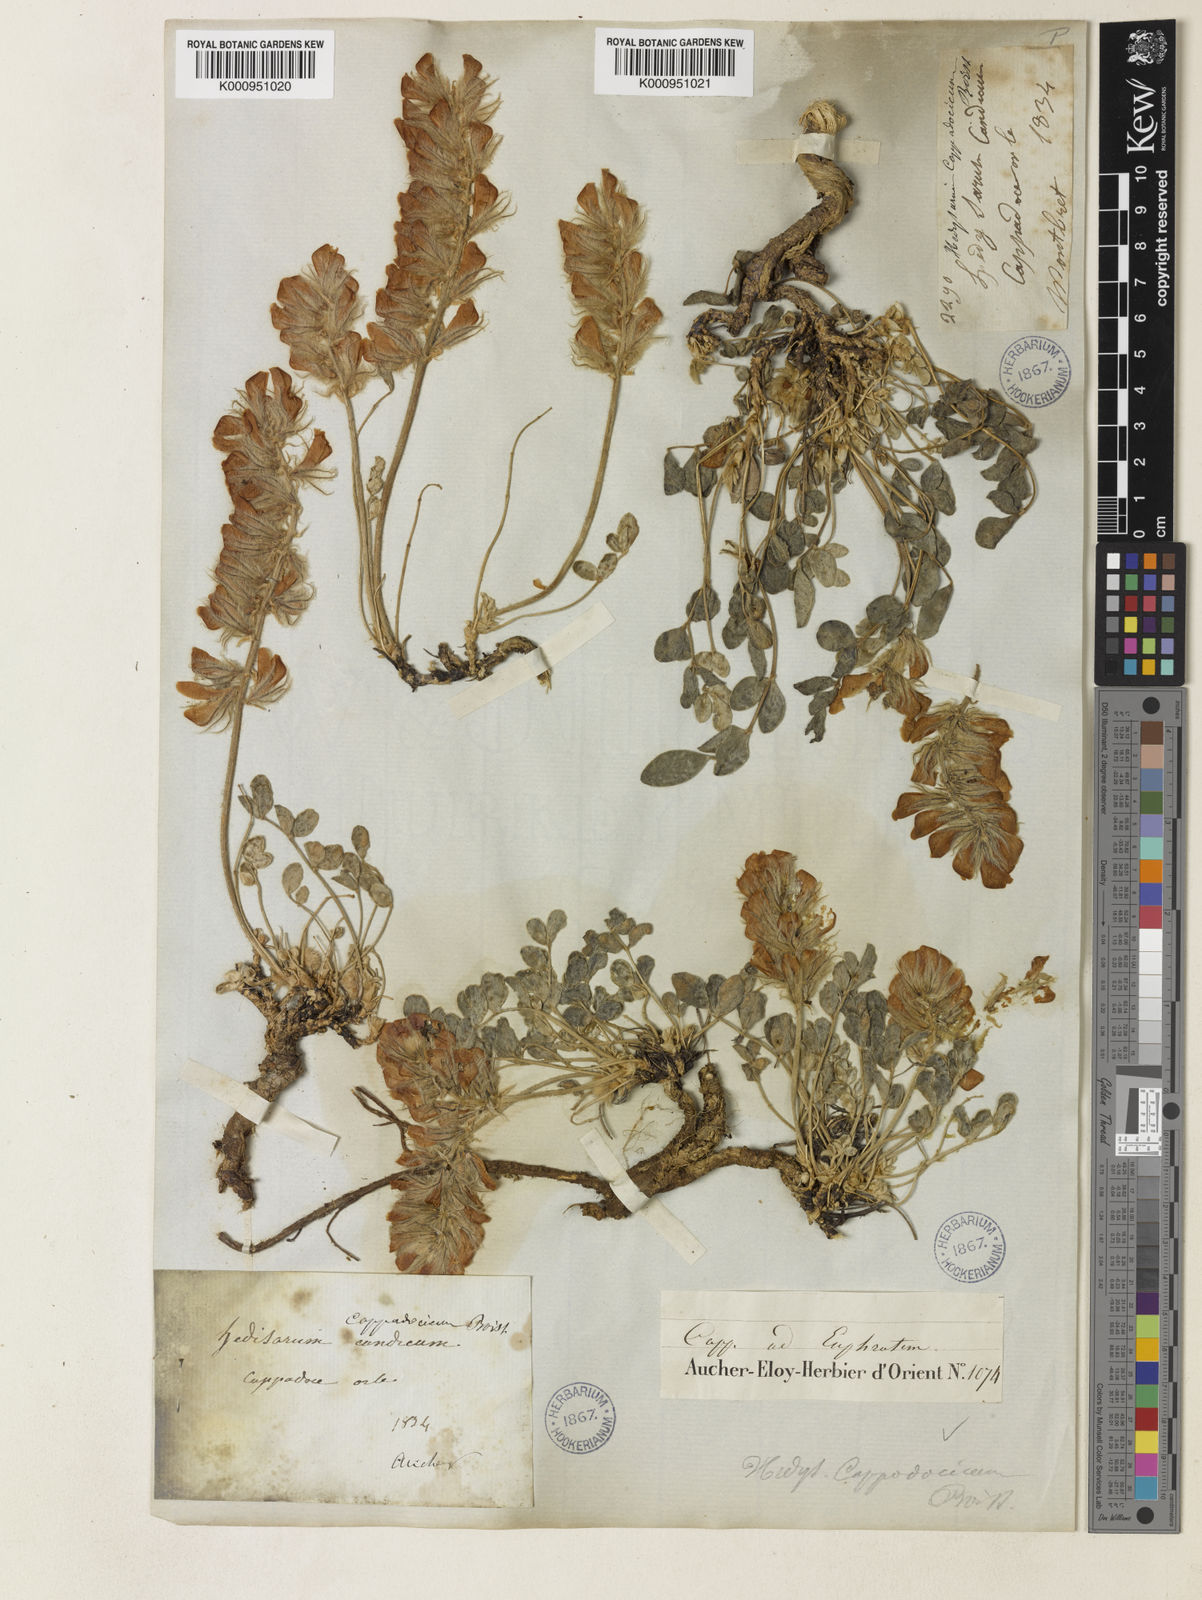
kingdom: Plantae
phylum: Tracheophyta
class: Magnoliopsida
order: Fabales
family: Fabaceae
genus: Hedysarum
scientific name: Hedysarum grandiflorum
